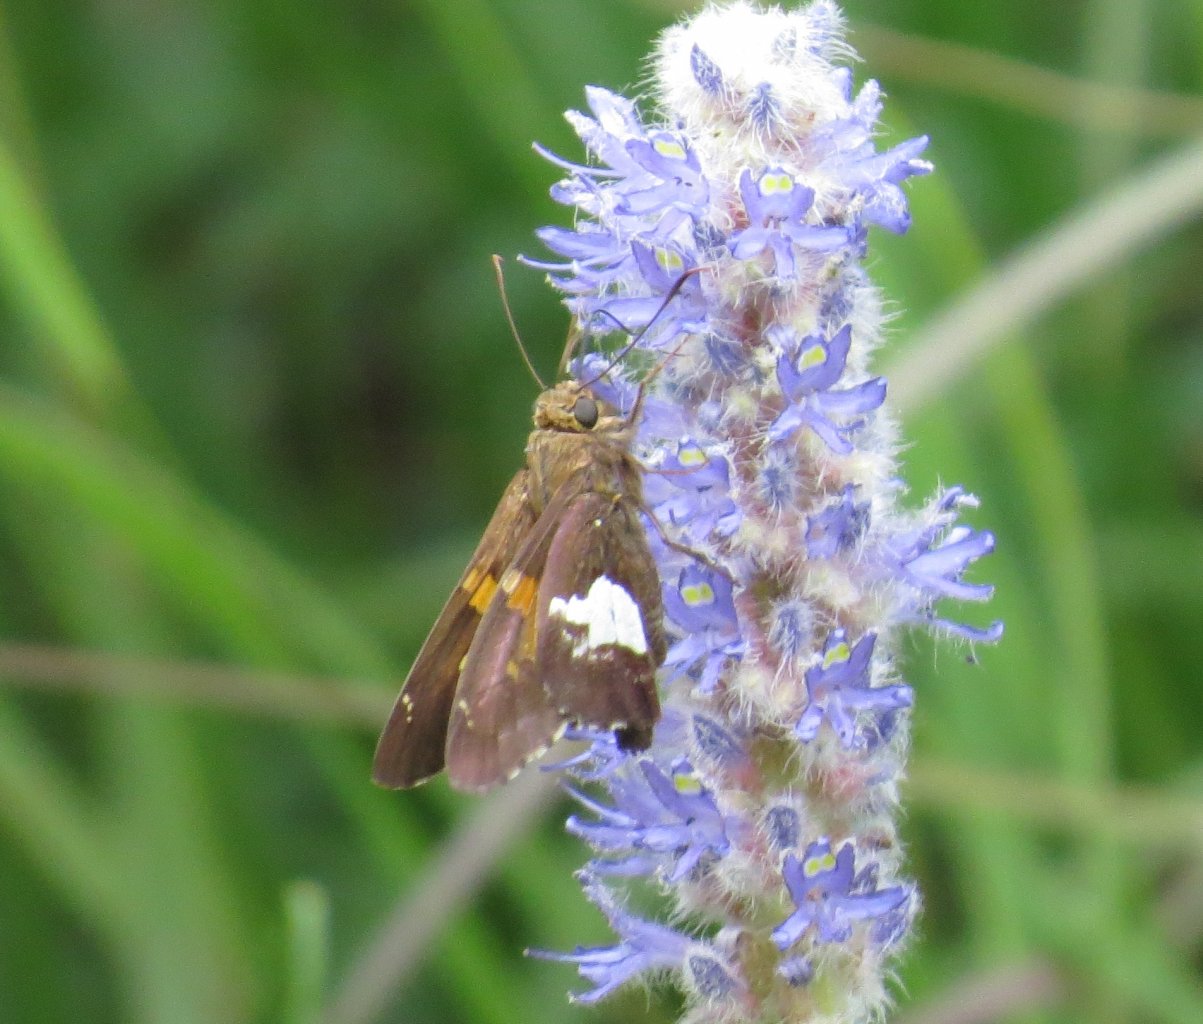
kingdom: Animalia
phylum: Arthropoda
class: Insecta
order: Lepidoptera
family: Hesperiidae
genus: Epargyreus
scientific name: Epargyreus clarus
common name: Silver-spotted Skipper
